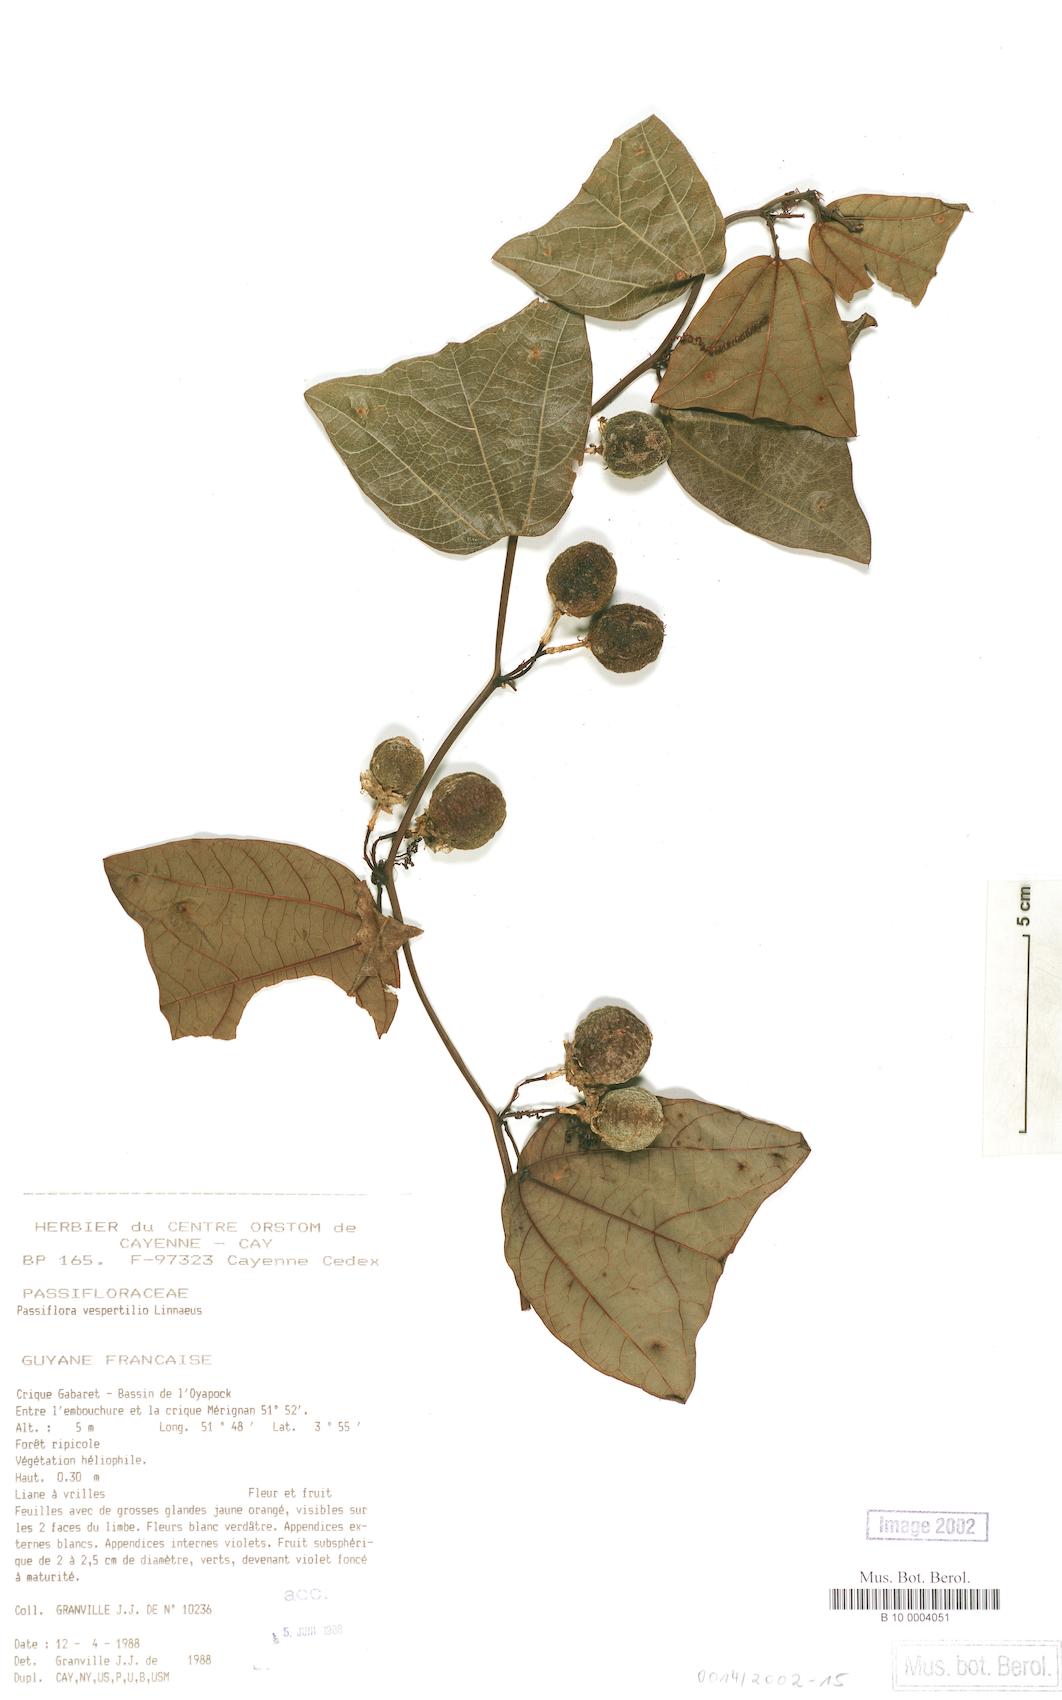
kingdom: Plantae
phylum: Tracheophyta
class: Magnoliopsida
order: Malpighiales
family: Passifloraceae
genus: Passiflora
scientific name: Passiflora vespertilio
